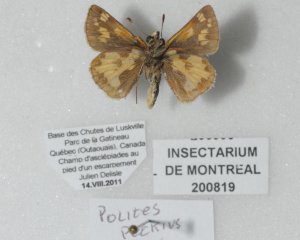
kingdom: Animalia
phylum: Arthropoda
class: Insecta
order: Lepidoptera
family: Hesperiidae
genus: Polites
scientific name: Polites coras
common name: Peck's Skipper
